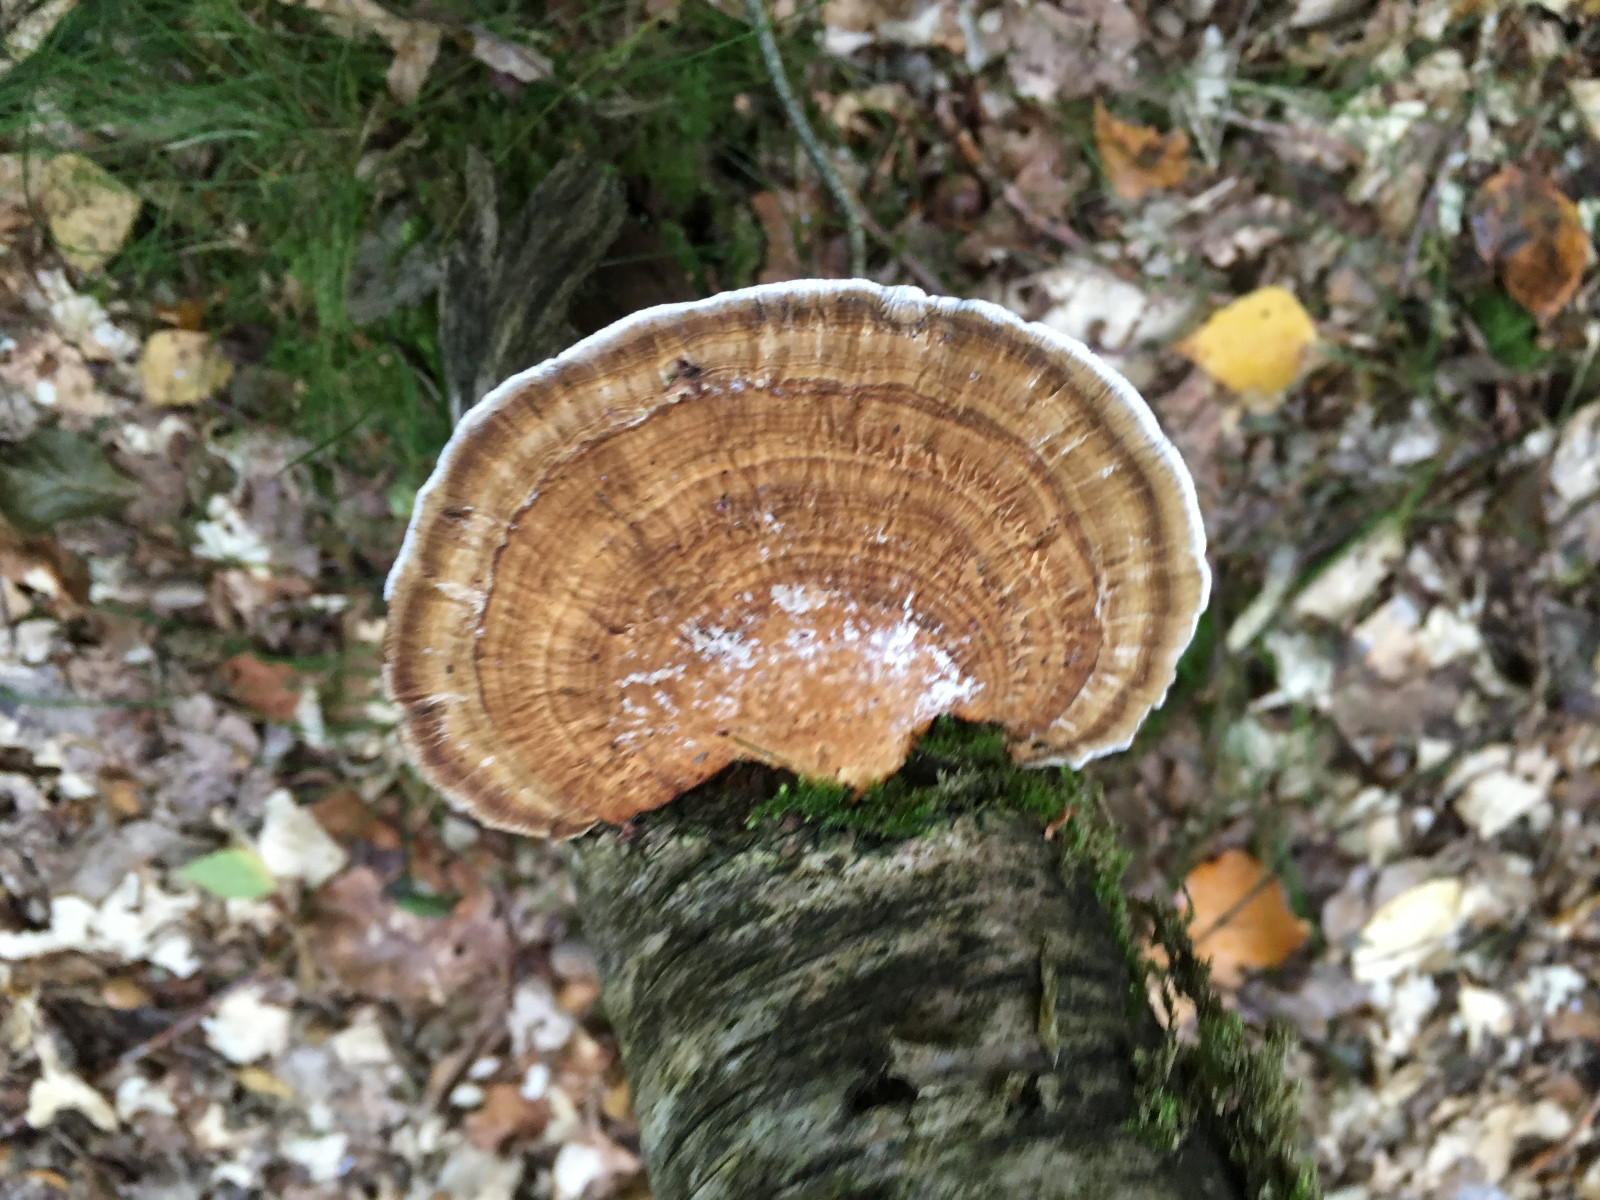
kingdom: Fungi
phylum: Basidiomycota
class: Agaricomycetes
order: Polyporales
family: Polyporaceae
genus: Daedaleopsis
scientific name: Daedaleopsis confragosa
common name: rødmende læderporesvamp
